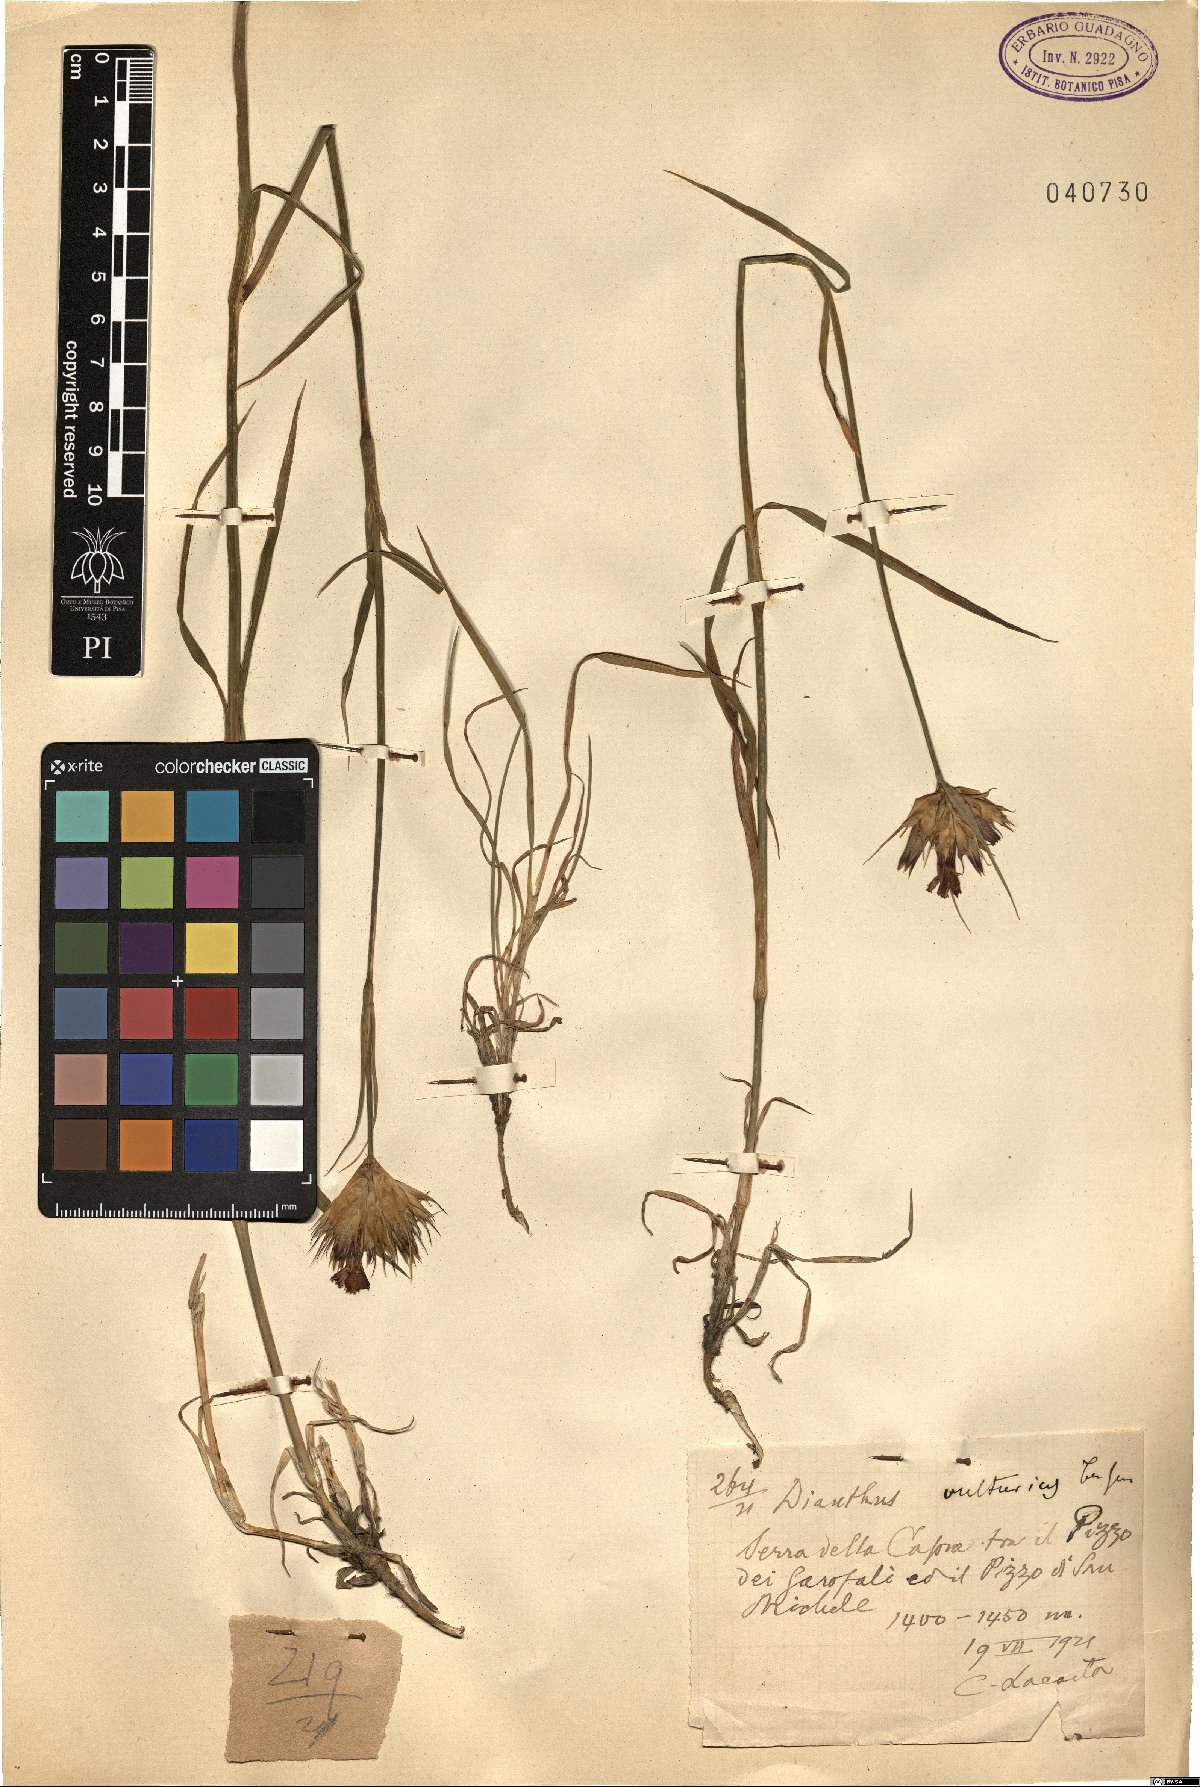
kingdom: Plantae
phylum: Tracheophyta
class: Magnoliopsida
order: Caryophyllales
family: Caryophyllaceae
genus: Dianthus
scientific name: Dianthus vulturius
